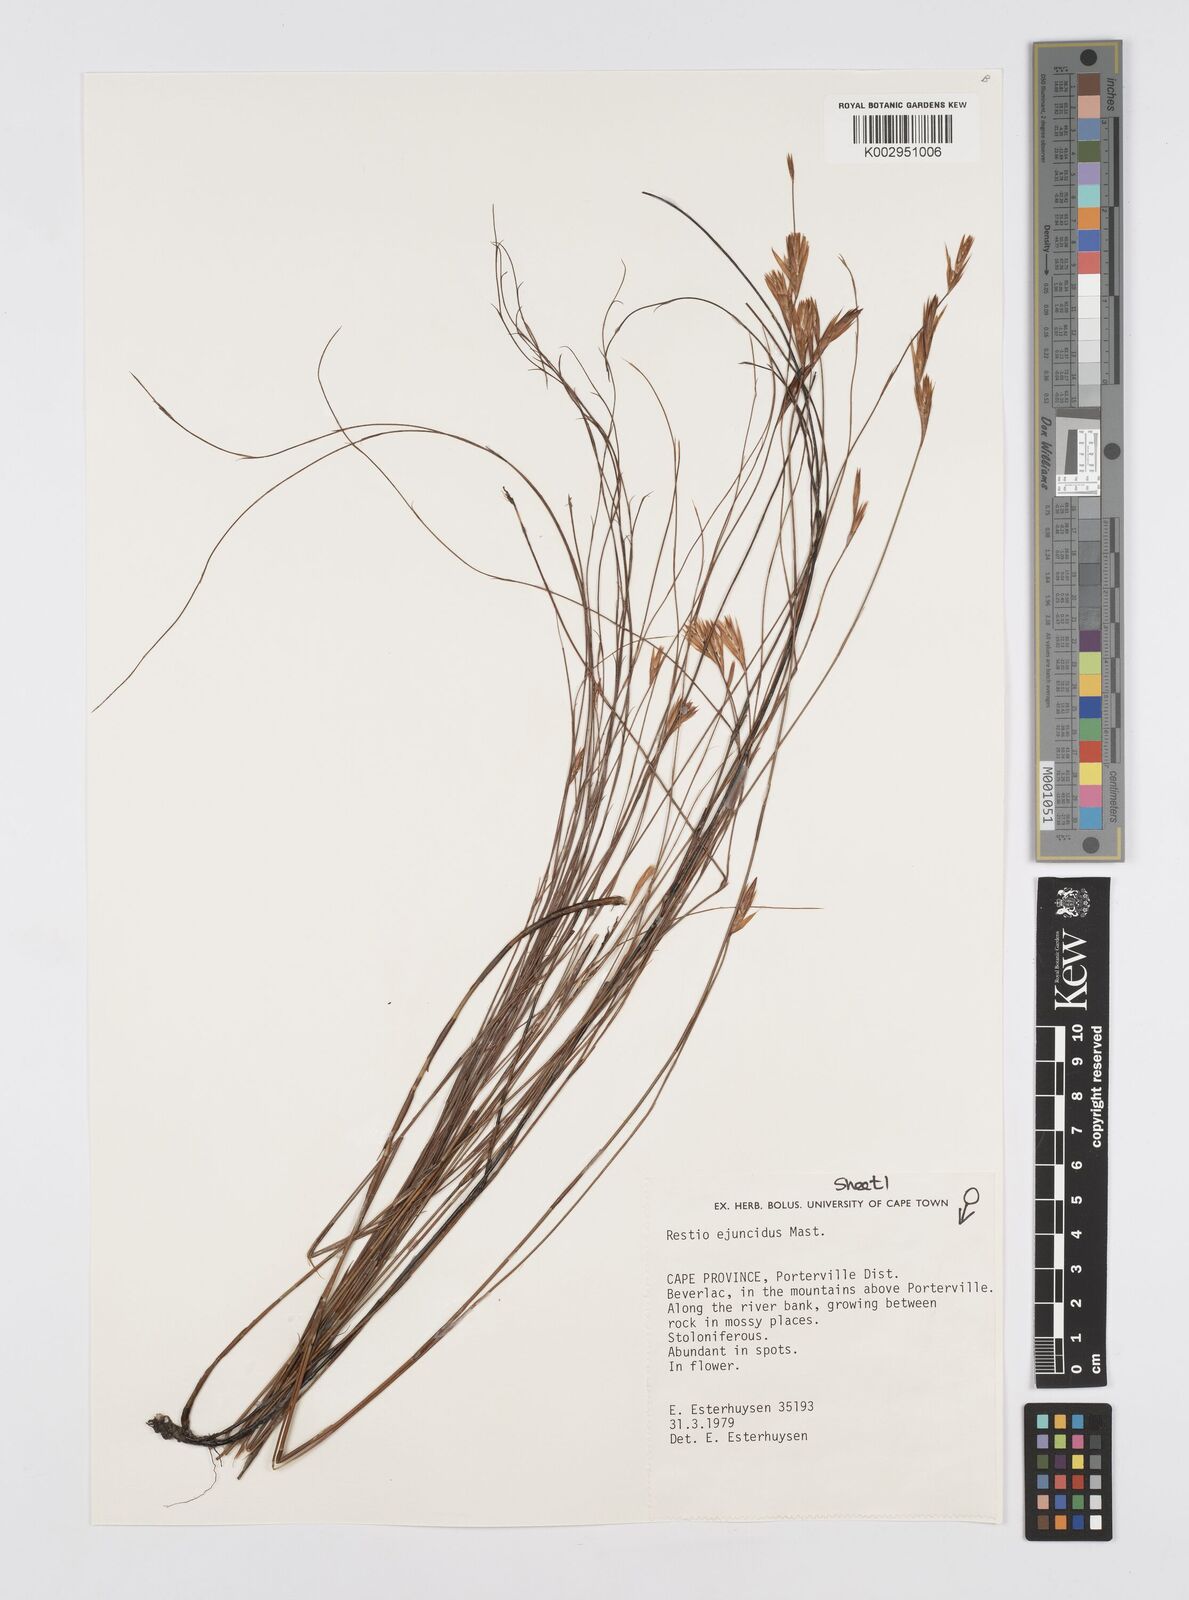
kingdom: Plantae
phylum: Tracheophyta
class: Liliopsida
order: Poales
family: Restionaceae
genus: Restio
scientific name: Restio ejuncidus
